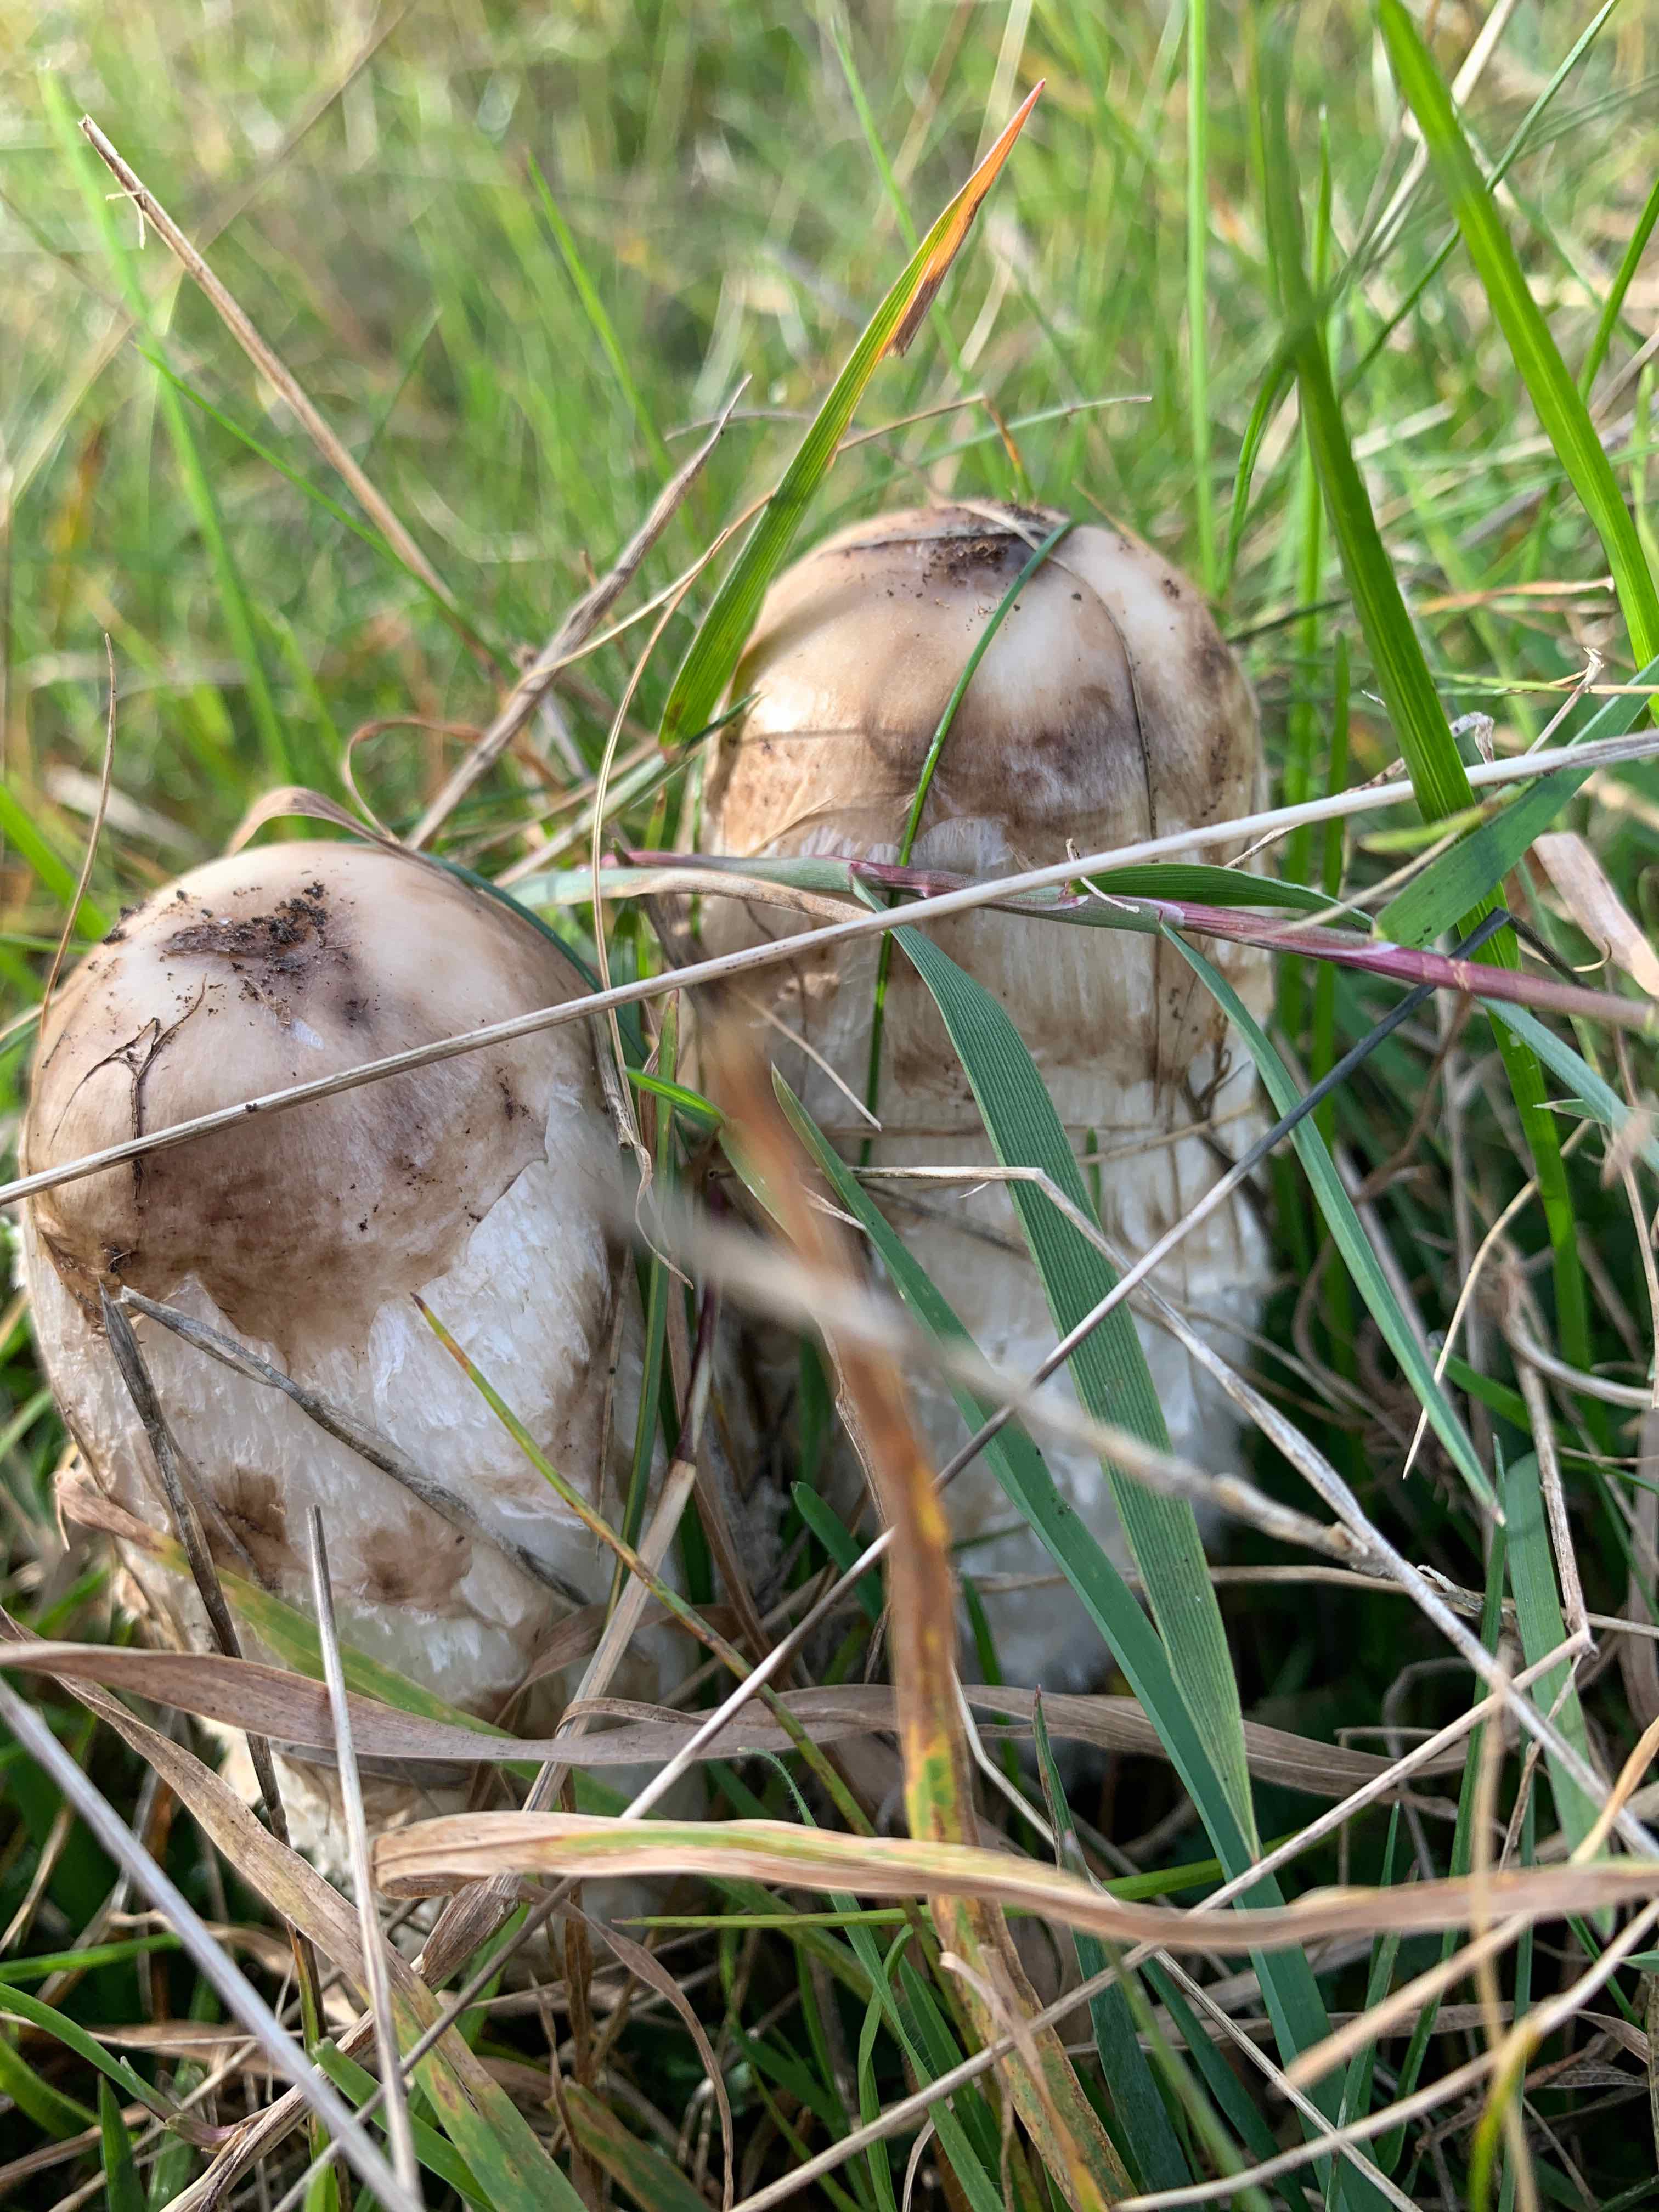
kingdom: Fungi
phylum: Basidiomycota
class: Agaricomycetes
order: Agaricales
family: Agaricaceae
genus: Coprinus
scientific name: Coprinus comatus
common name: stor parykhat
